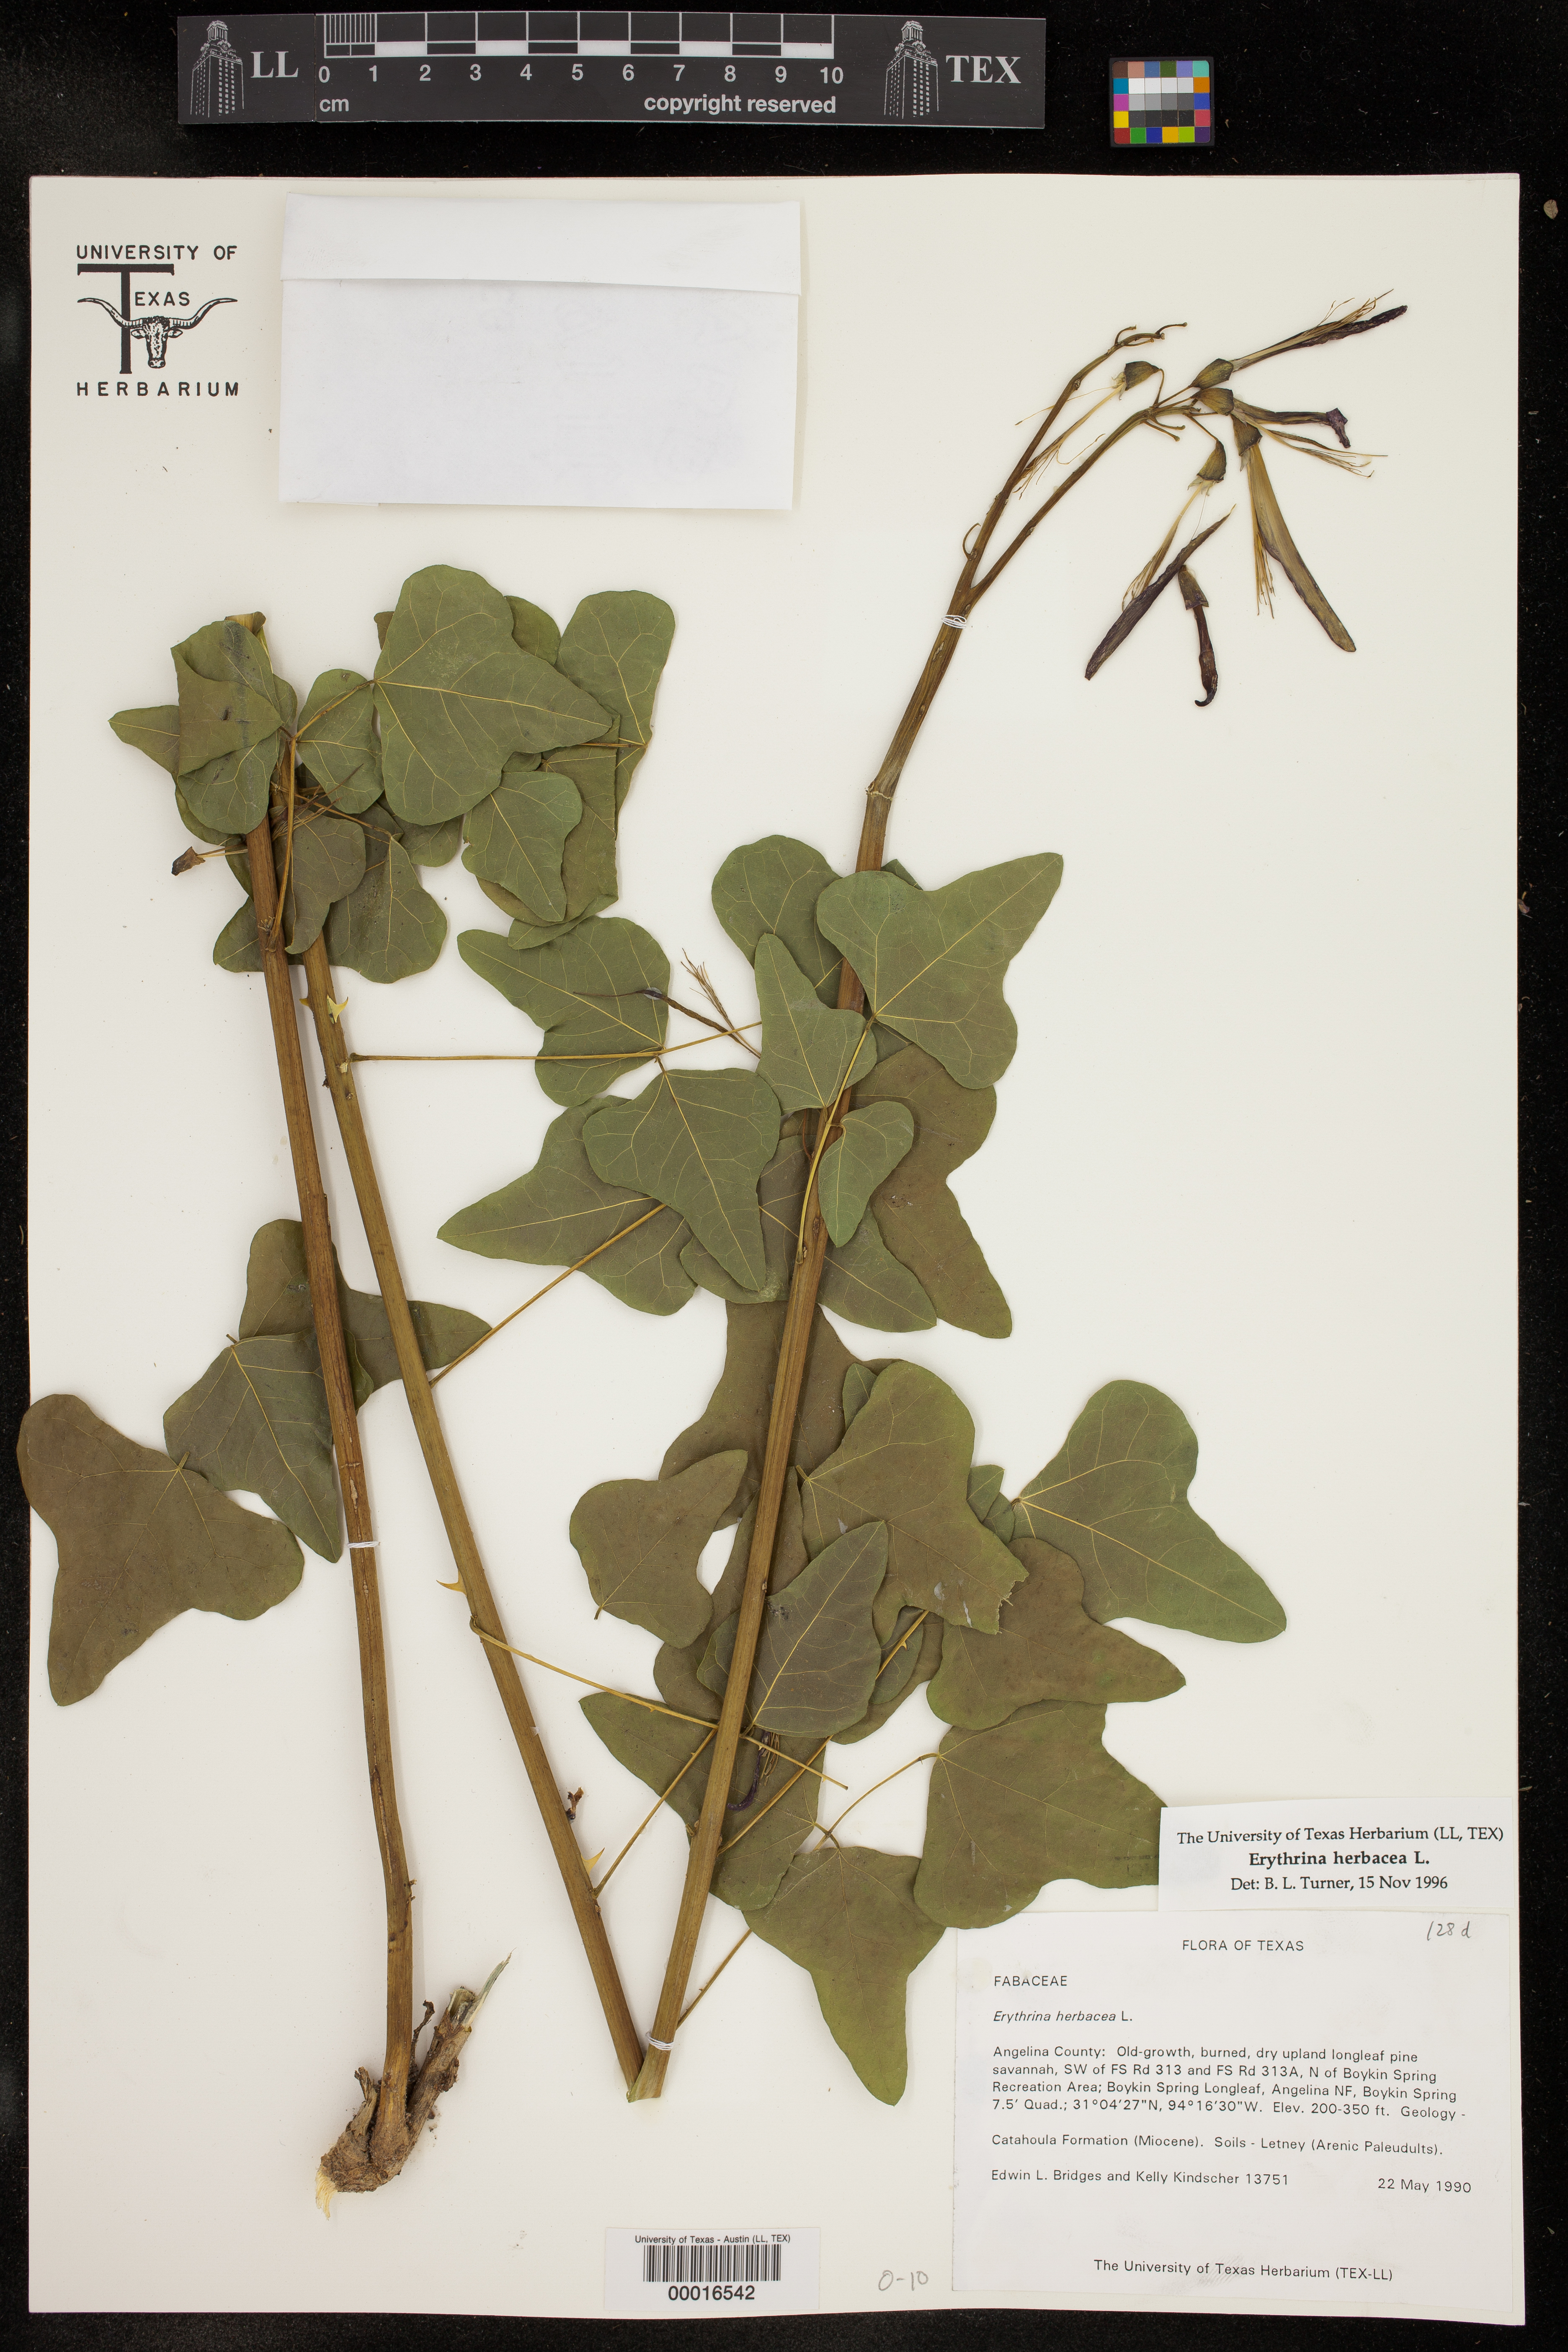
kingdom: Plantae
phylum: Tracheophyta
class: Magnoliopsida
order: Fabales
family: Fabaceae
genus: Erythrina
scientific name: Erythrina herbacea
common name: Coral-bean
